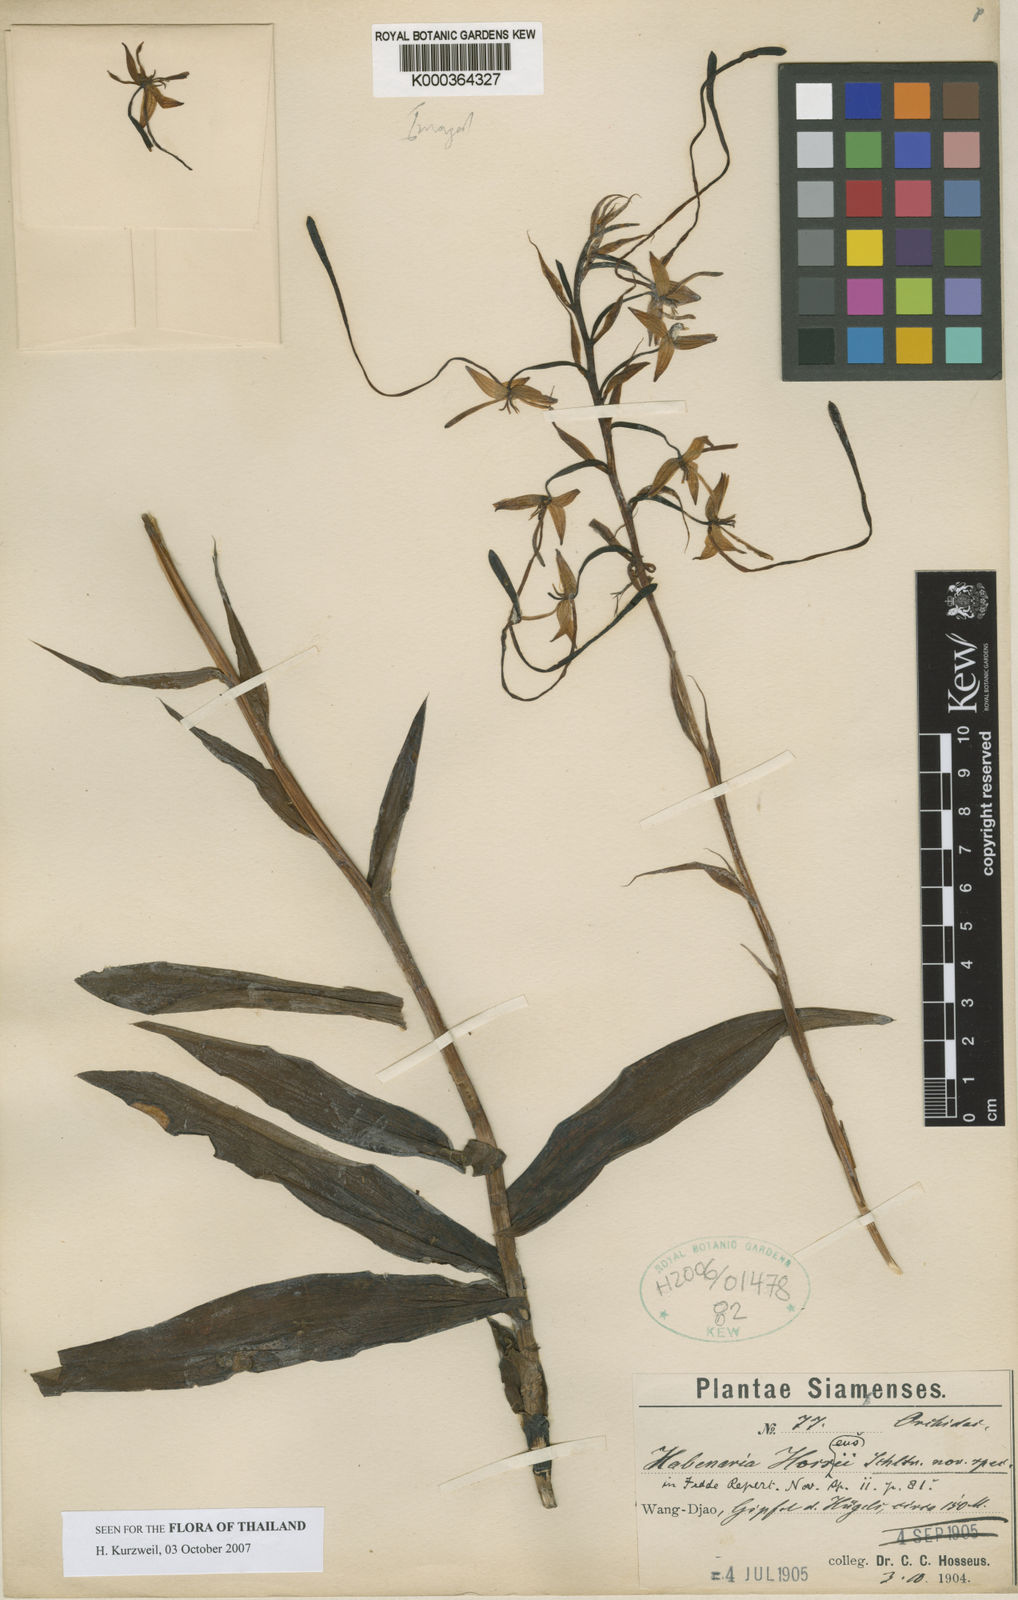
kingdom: Plantae
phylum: Tracheophyta
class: Liliopsida
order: Asparagales
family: Orchidaceae
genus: Habenaria
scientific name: Habenaria hosseusii
